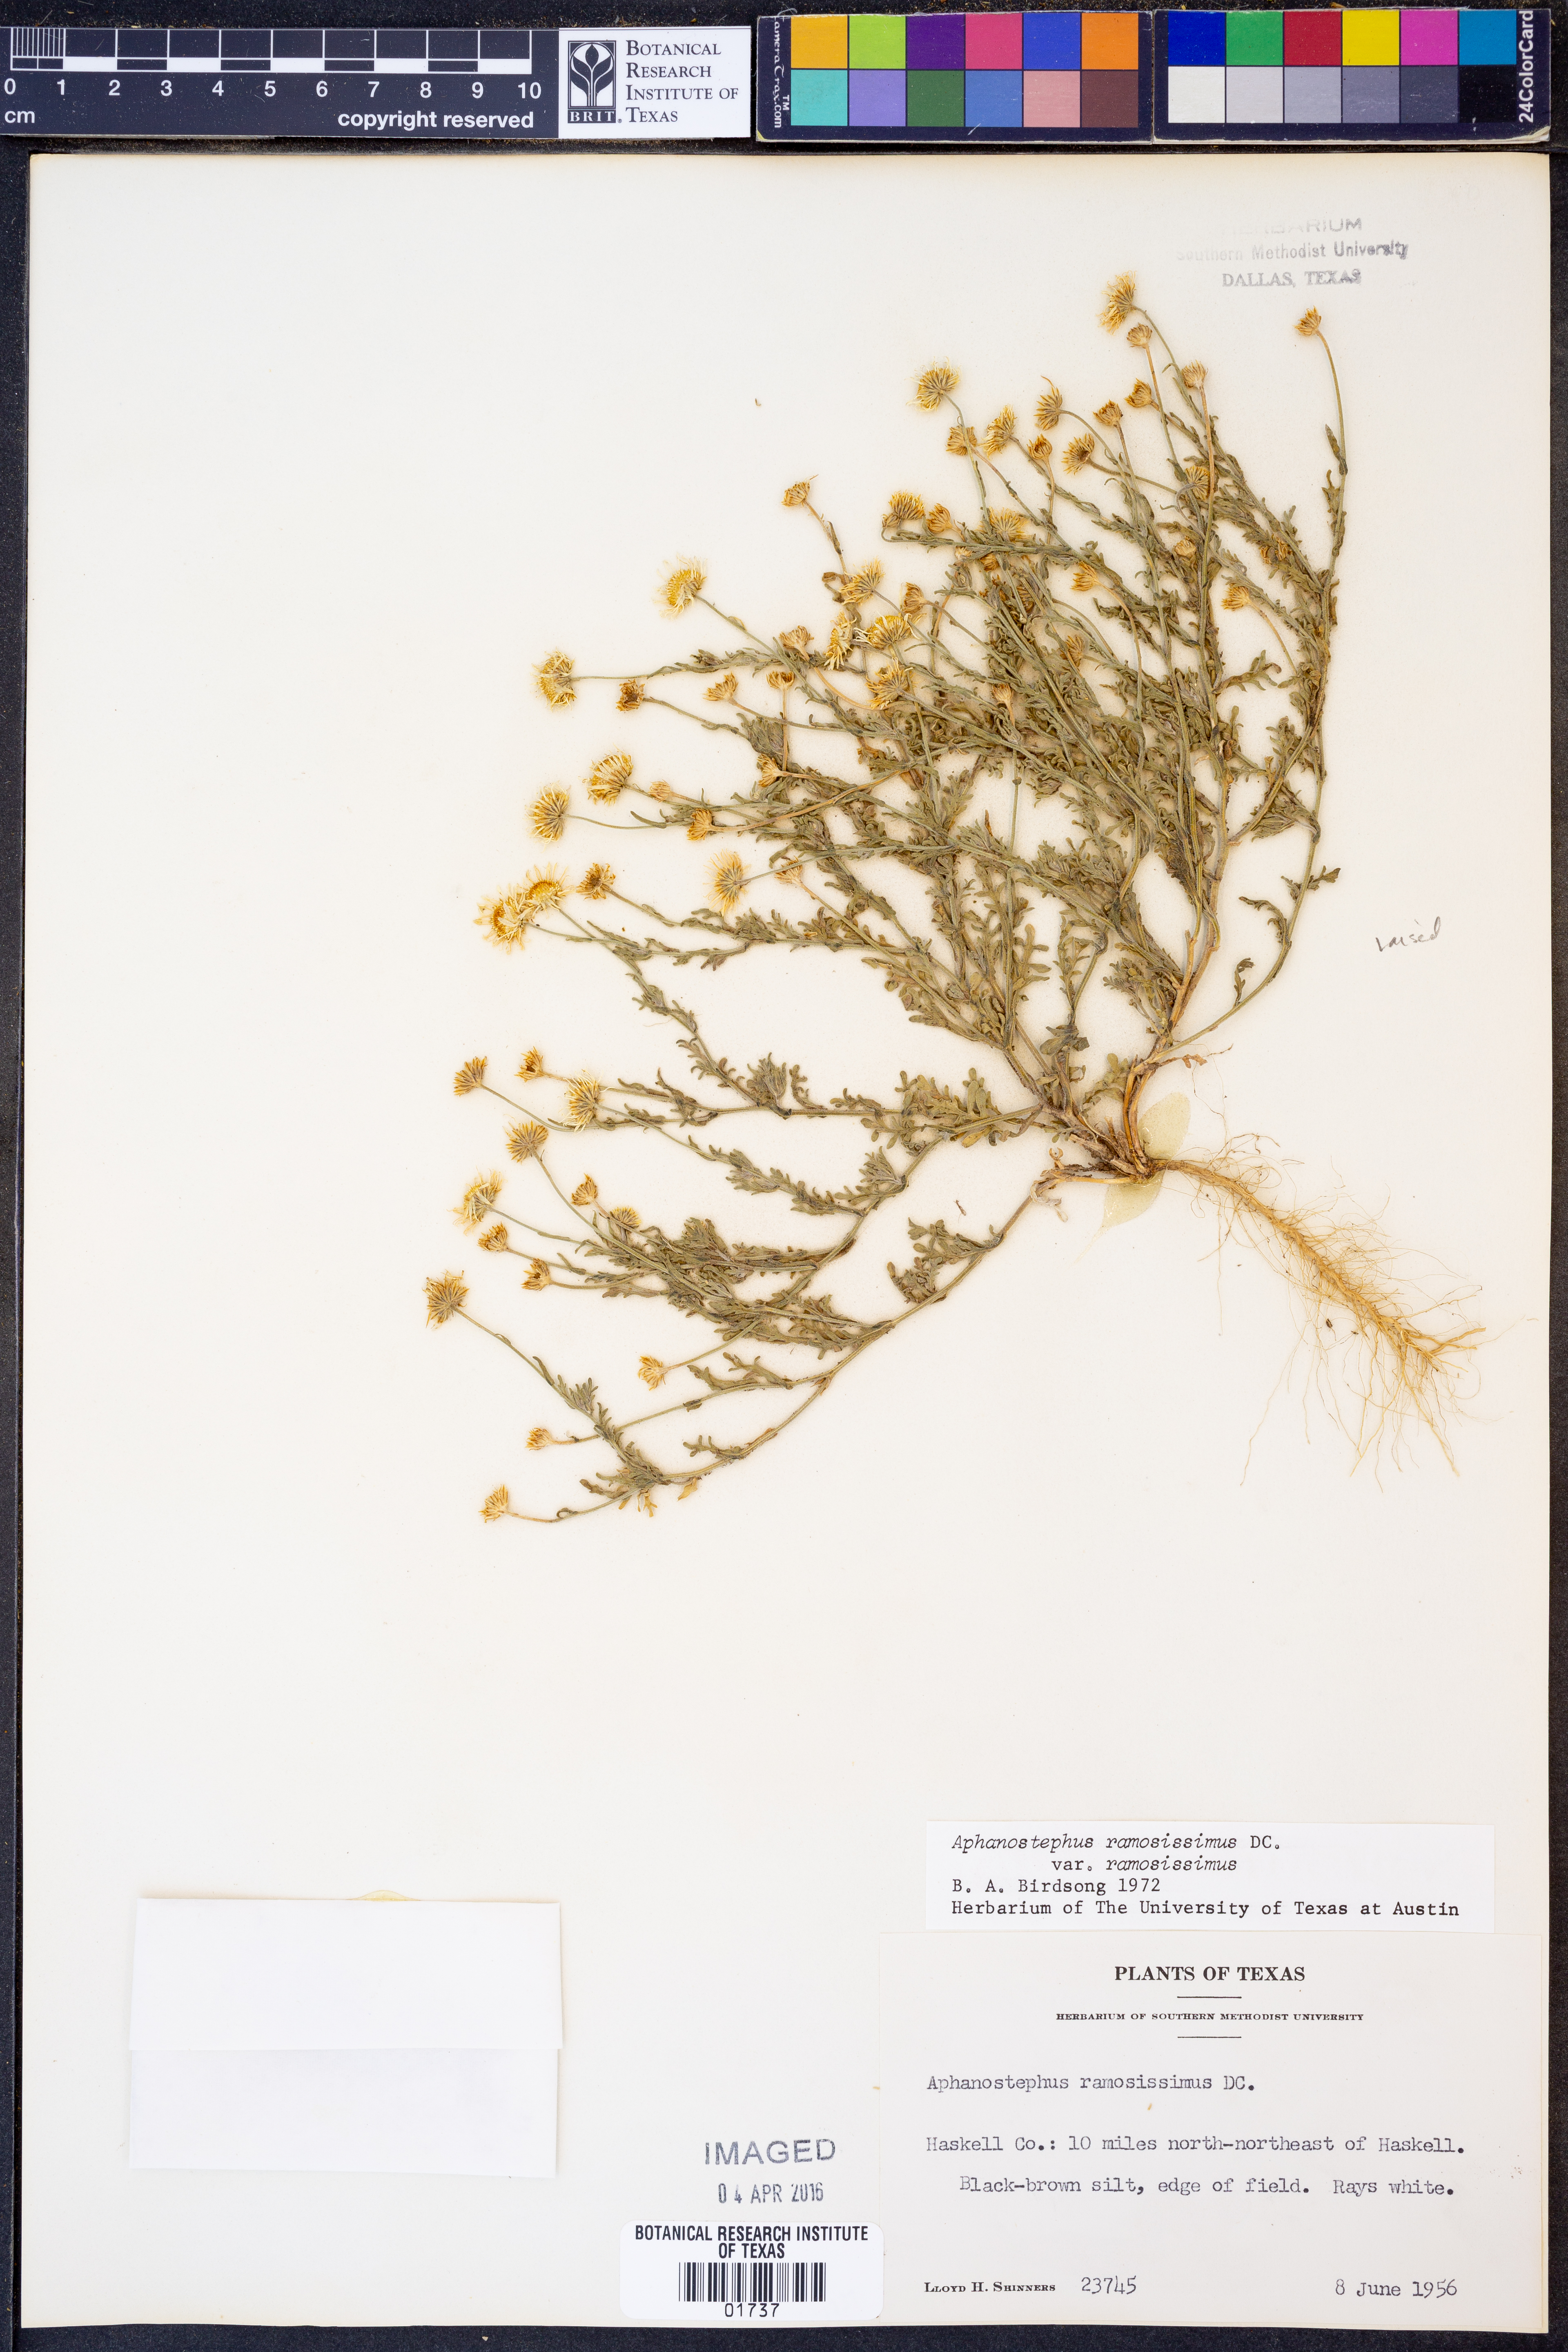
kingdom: Plantae
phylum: Tracheophyta
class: Magnoliopsida
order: Asterales
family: Asteraceae
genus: Aphanostephus
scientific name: Aphanostephus ramosissimus
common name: Plains lazy daisy
